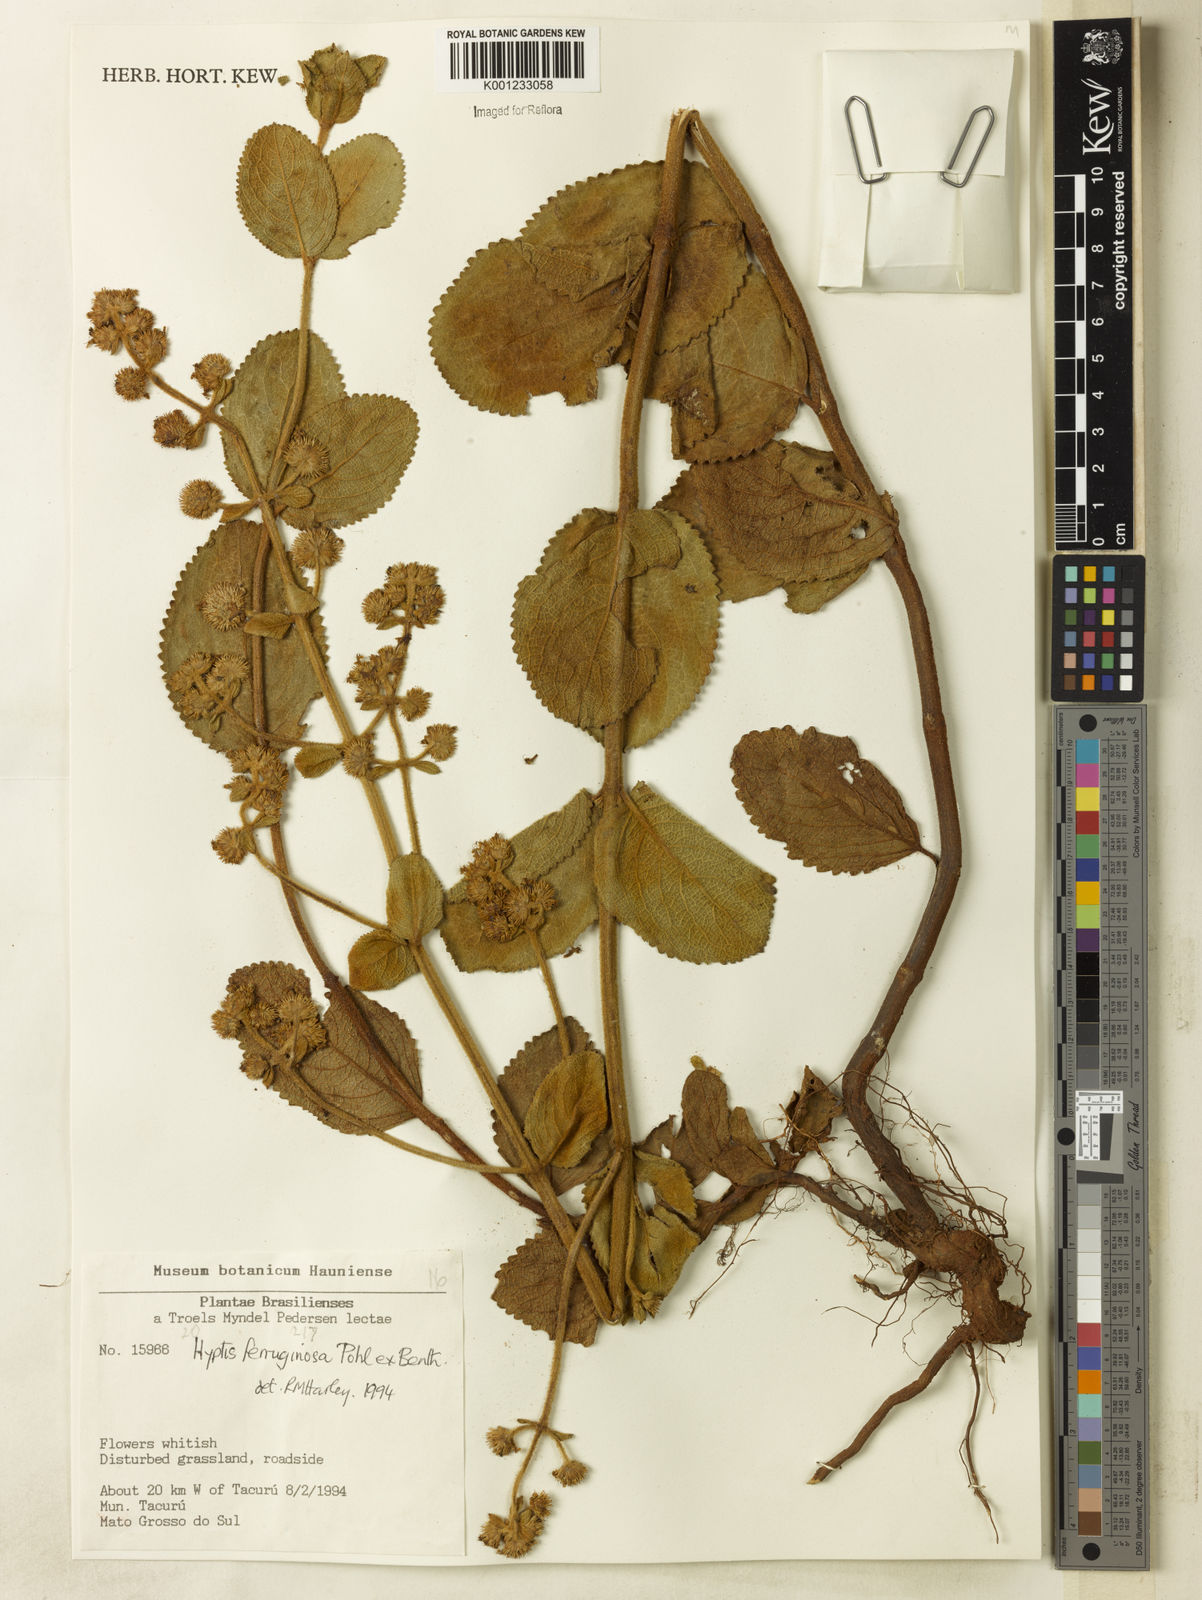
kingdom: Plantae
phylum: Tracheophyta
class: Magnoliopsida
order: Lamiales
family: Lamiaceae
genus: Hyptis
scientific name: Hyptis ferruginosa
